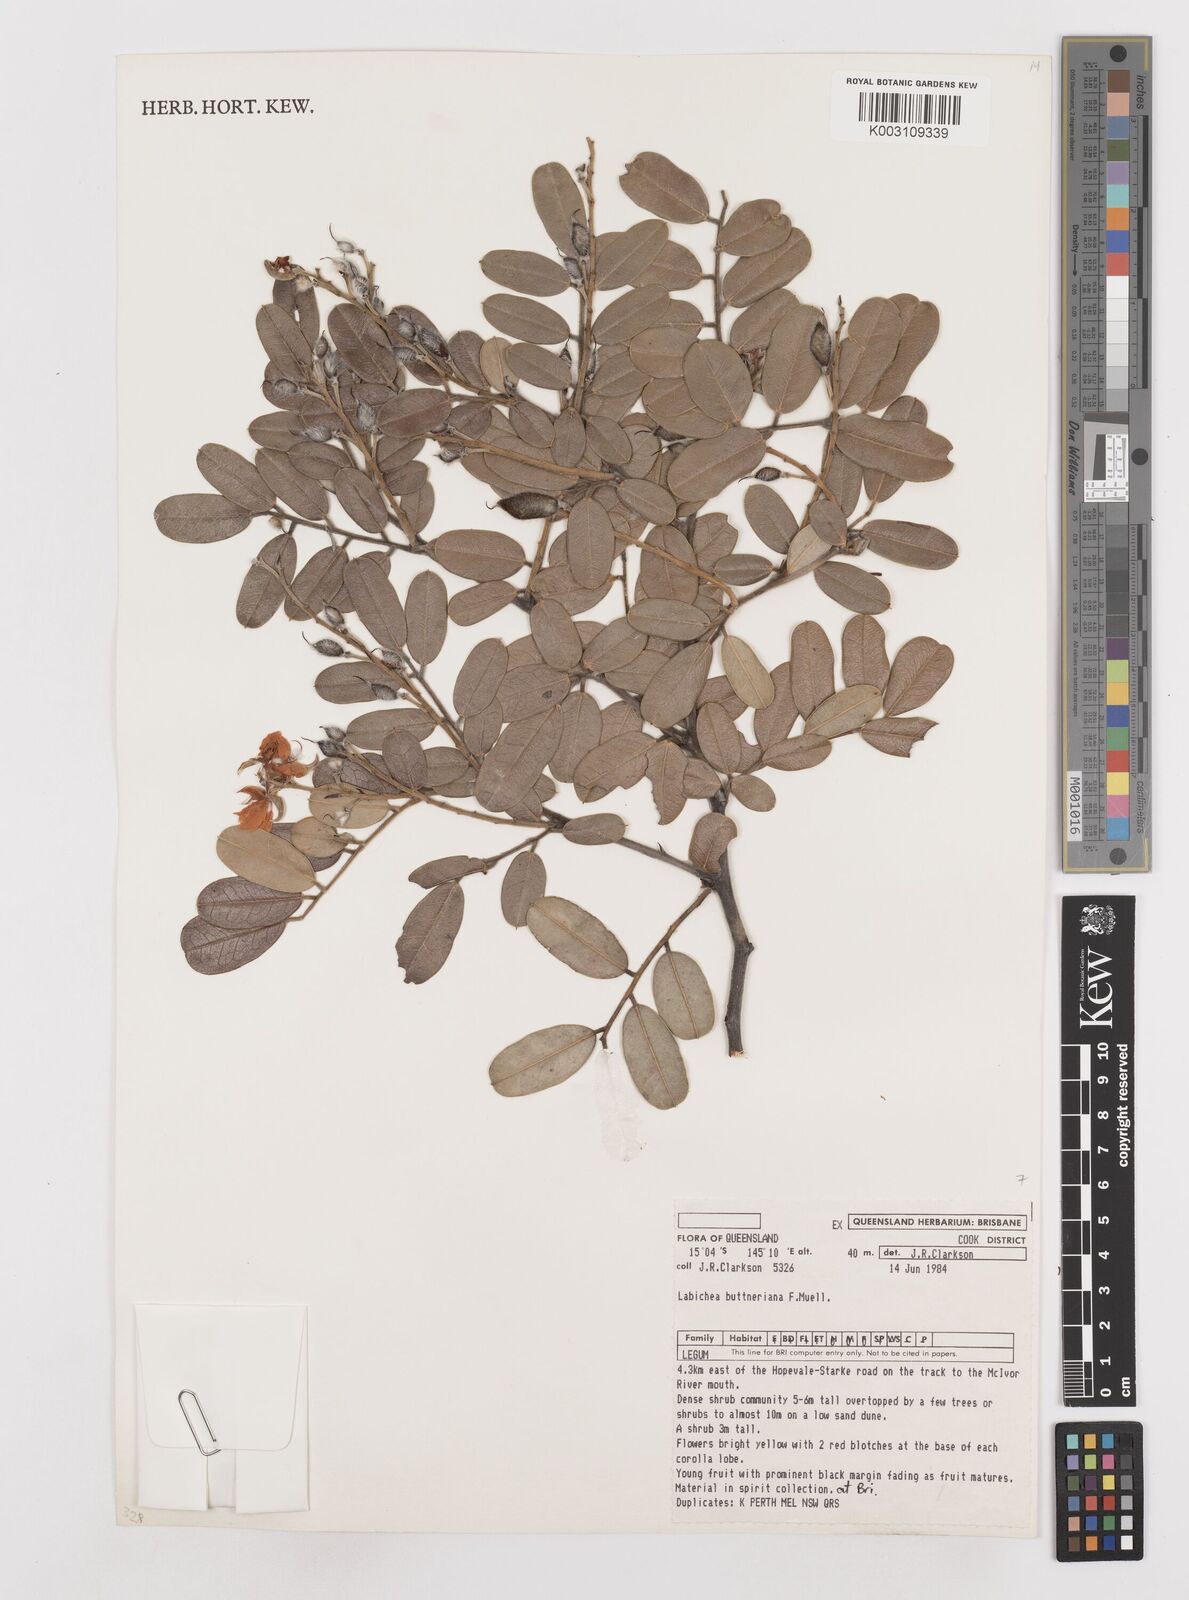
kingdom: Plantae
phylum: Tracheophyta
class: Magnoliopsida
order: Fabales
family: Fabaceae
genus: Labichea
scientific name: Labichea buettneriana
